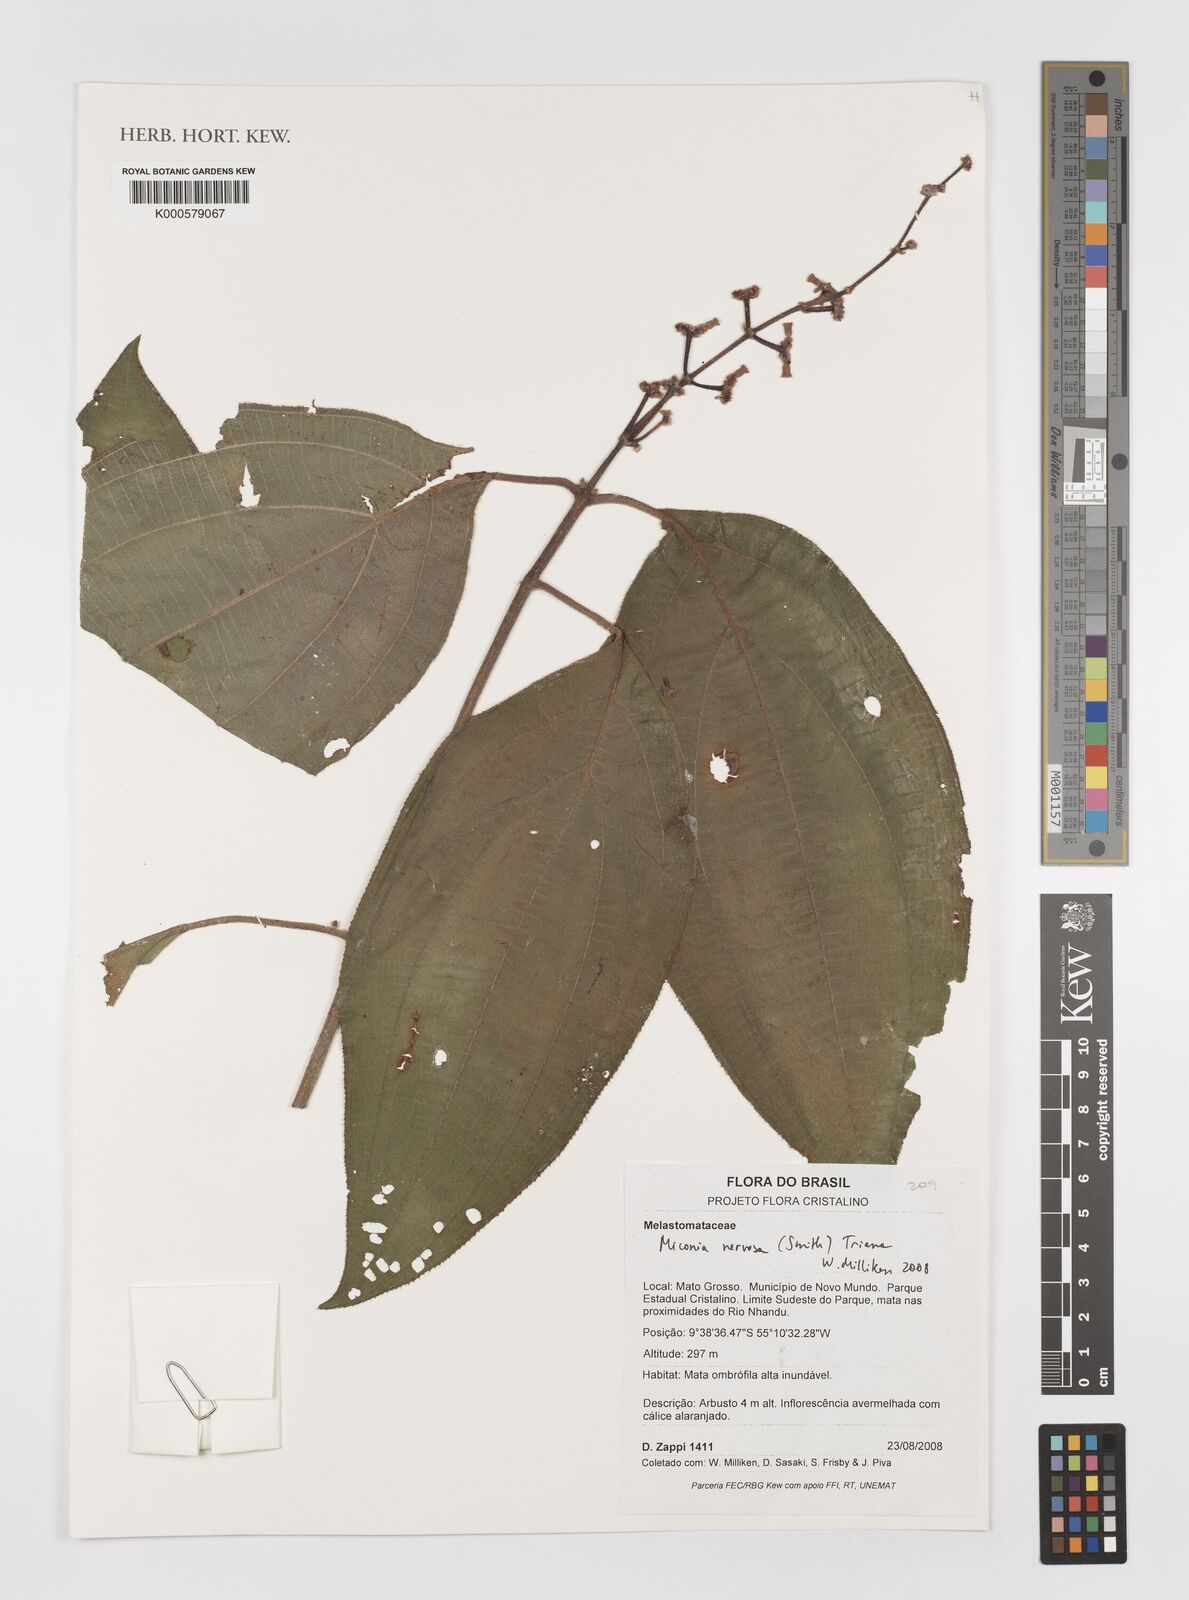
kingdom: Plantae
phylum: Tracheophyta
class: Magnoliopsida
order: Myrtales
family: Melastomataceae
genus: Miconia
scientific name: Miconia nervosa
